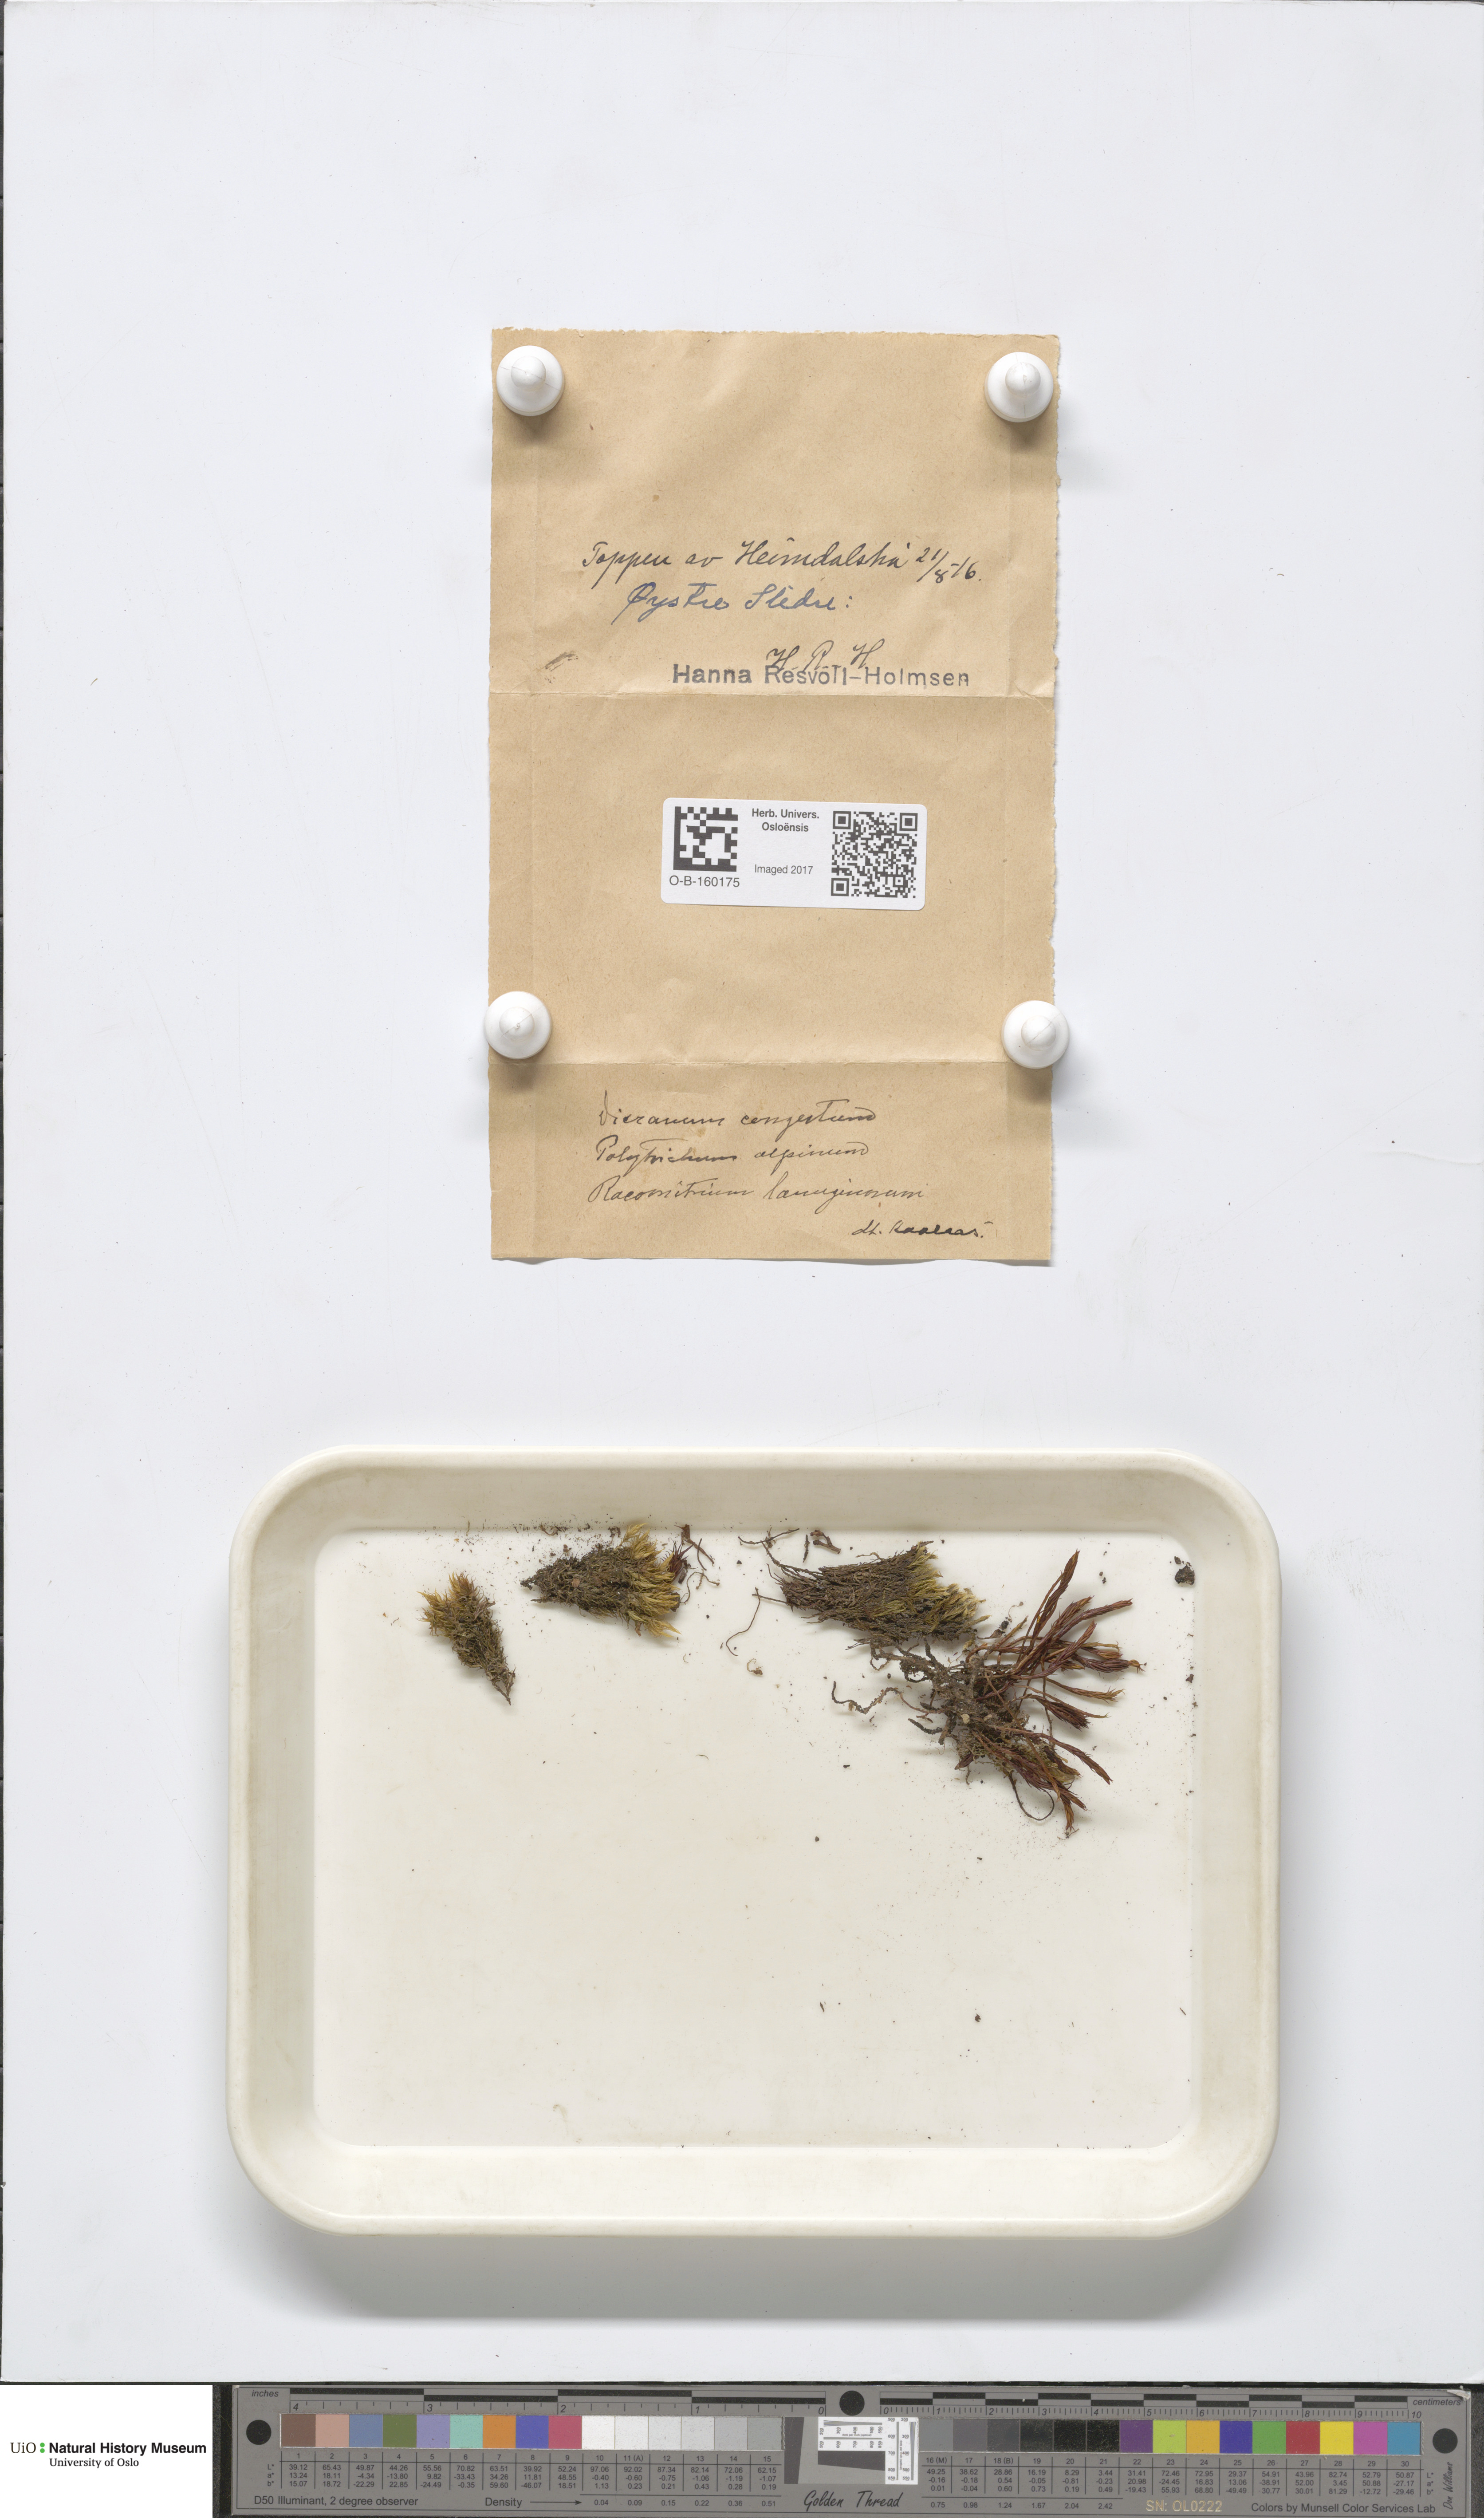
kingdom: Plantae
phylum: Bryophyta
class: Bryopsida
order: Dicranales
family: Dicranaceae
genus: Dicranum
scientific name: Dicranum flexicaule
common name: Bendy heron s-bill moss
